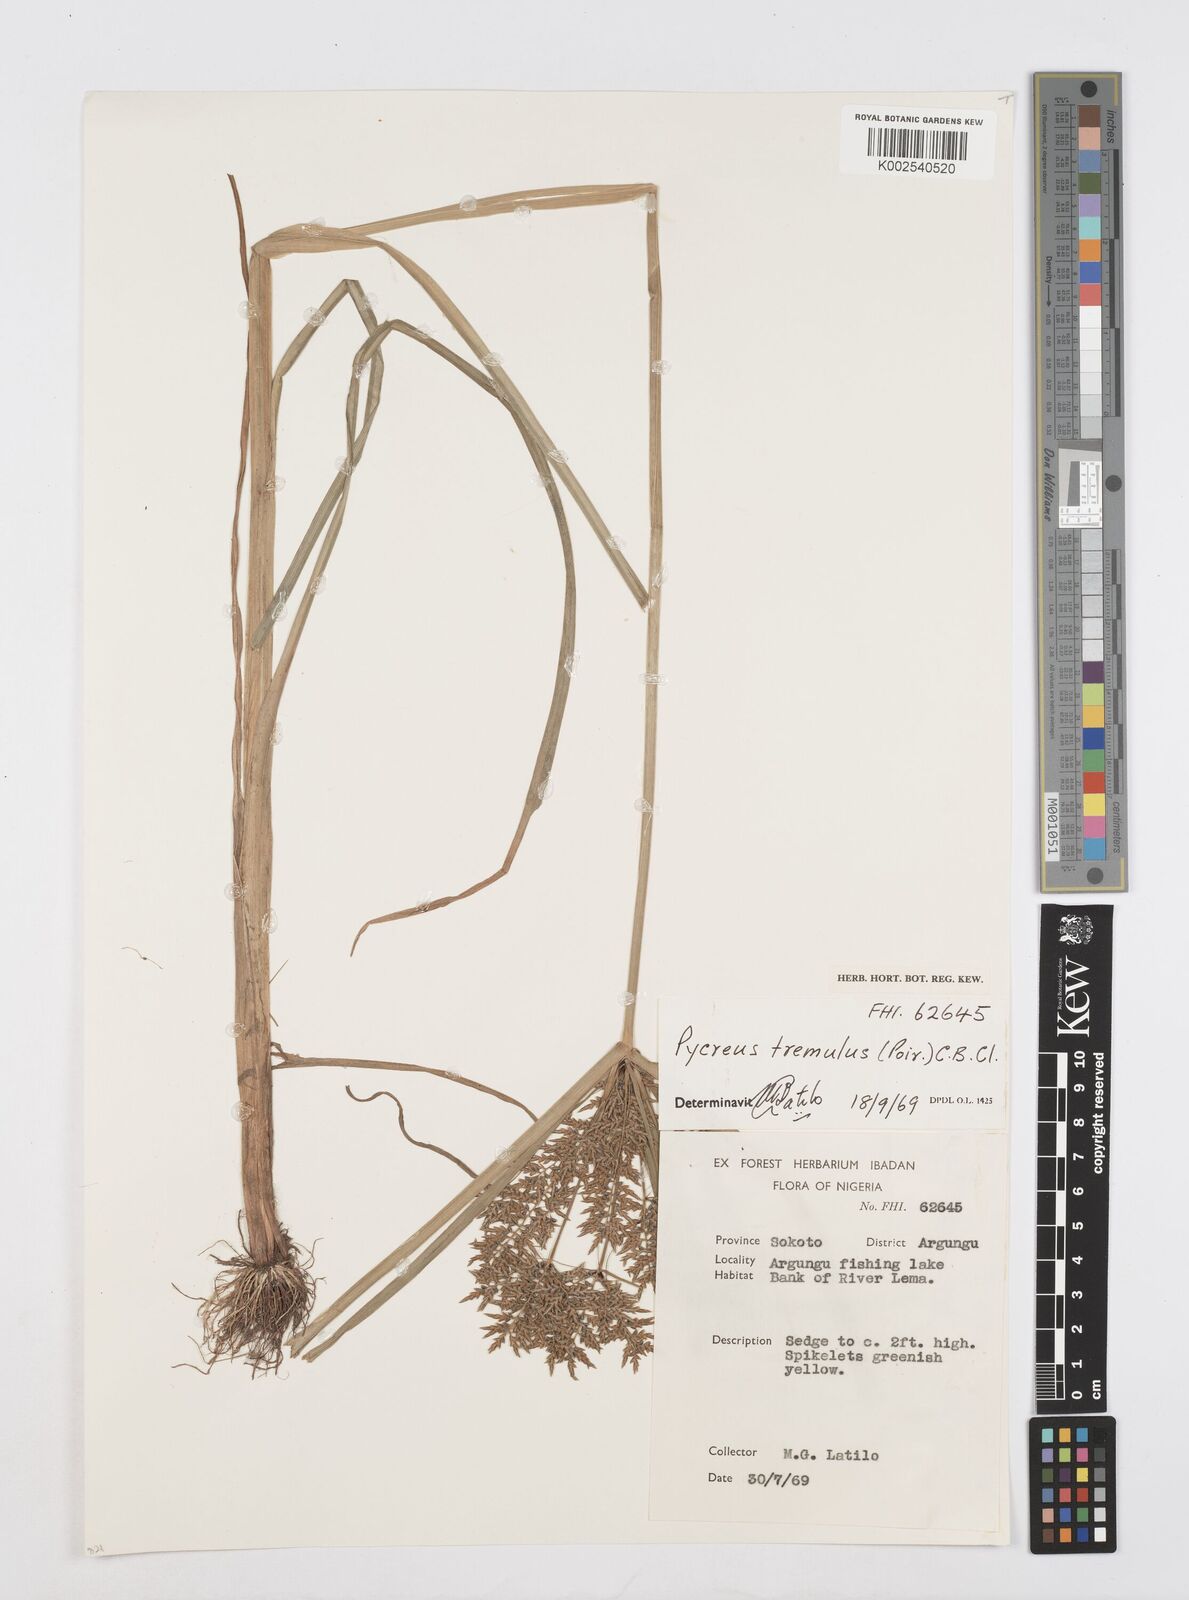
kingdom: Plantae
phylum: Tracheophyta
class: Liliopsida
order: Poales
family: Cyperaceae
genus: Cyperus
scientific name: Cyperus macrostachyos
